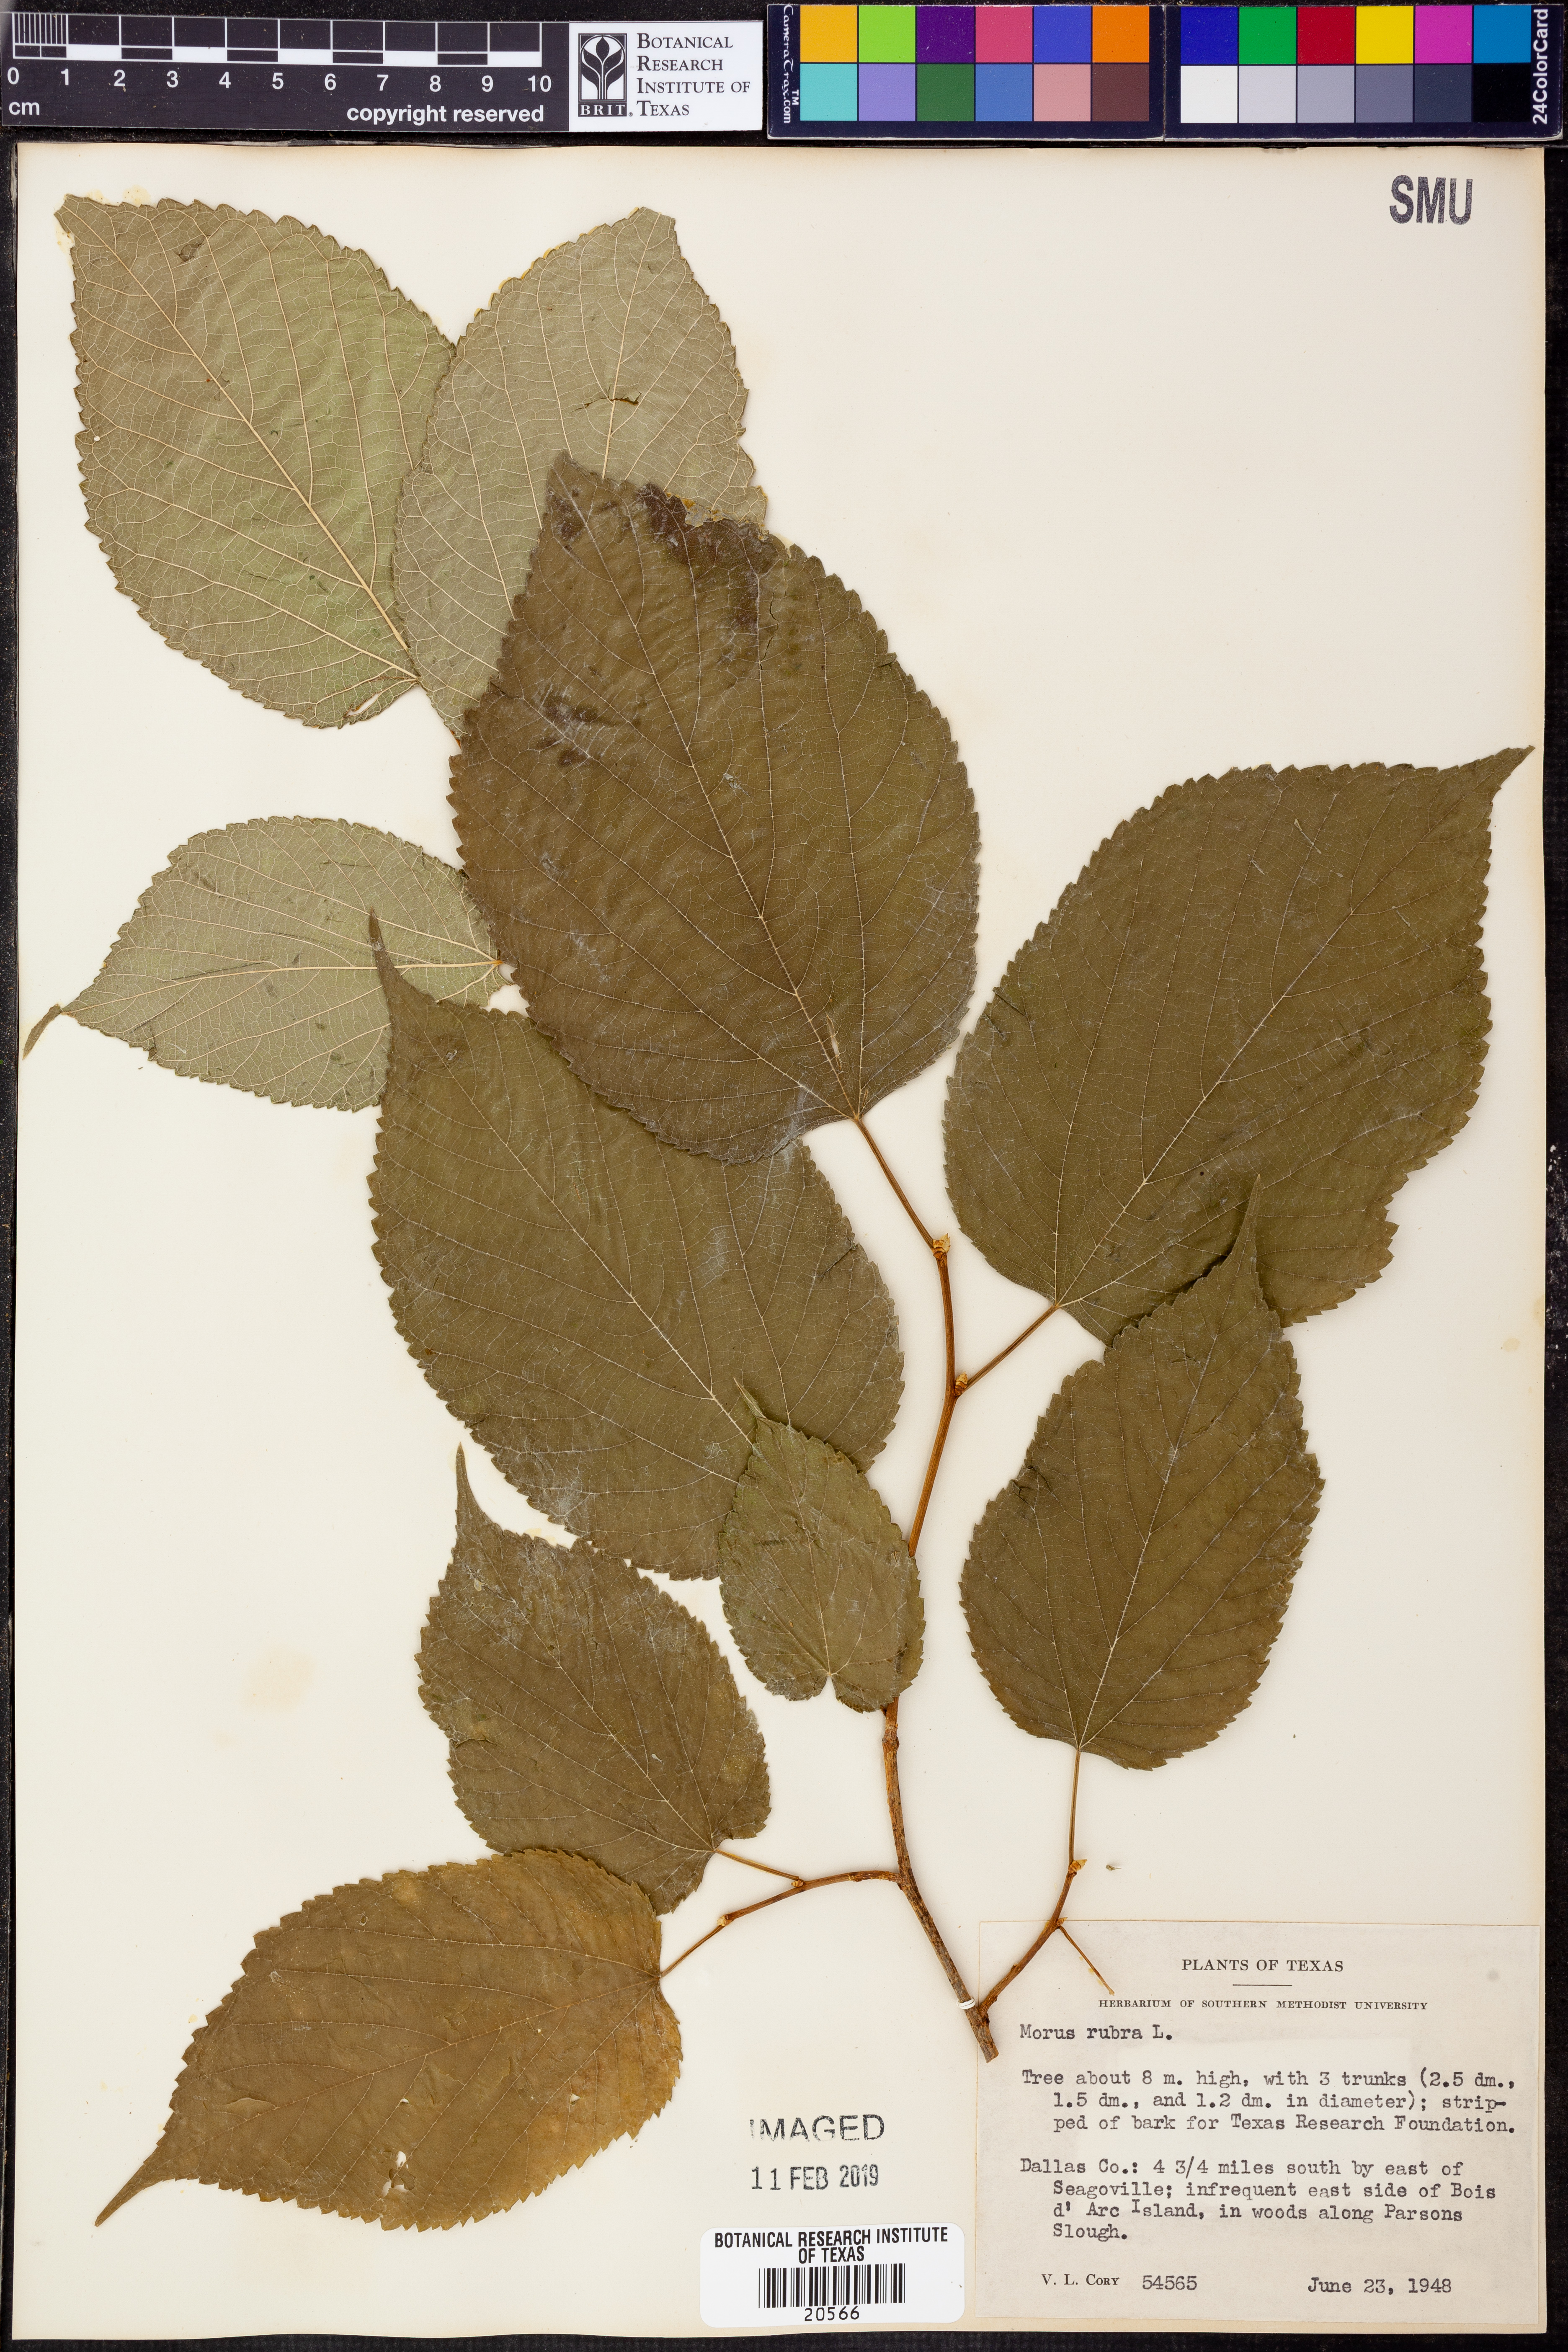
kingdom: Plantae
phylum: Tracheophyta
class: Magnoliopsida
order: Rosales
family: Moraceae
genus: Morus
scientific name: Morus rubra
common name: Red mulberry
